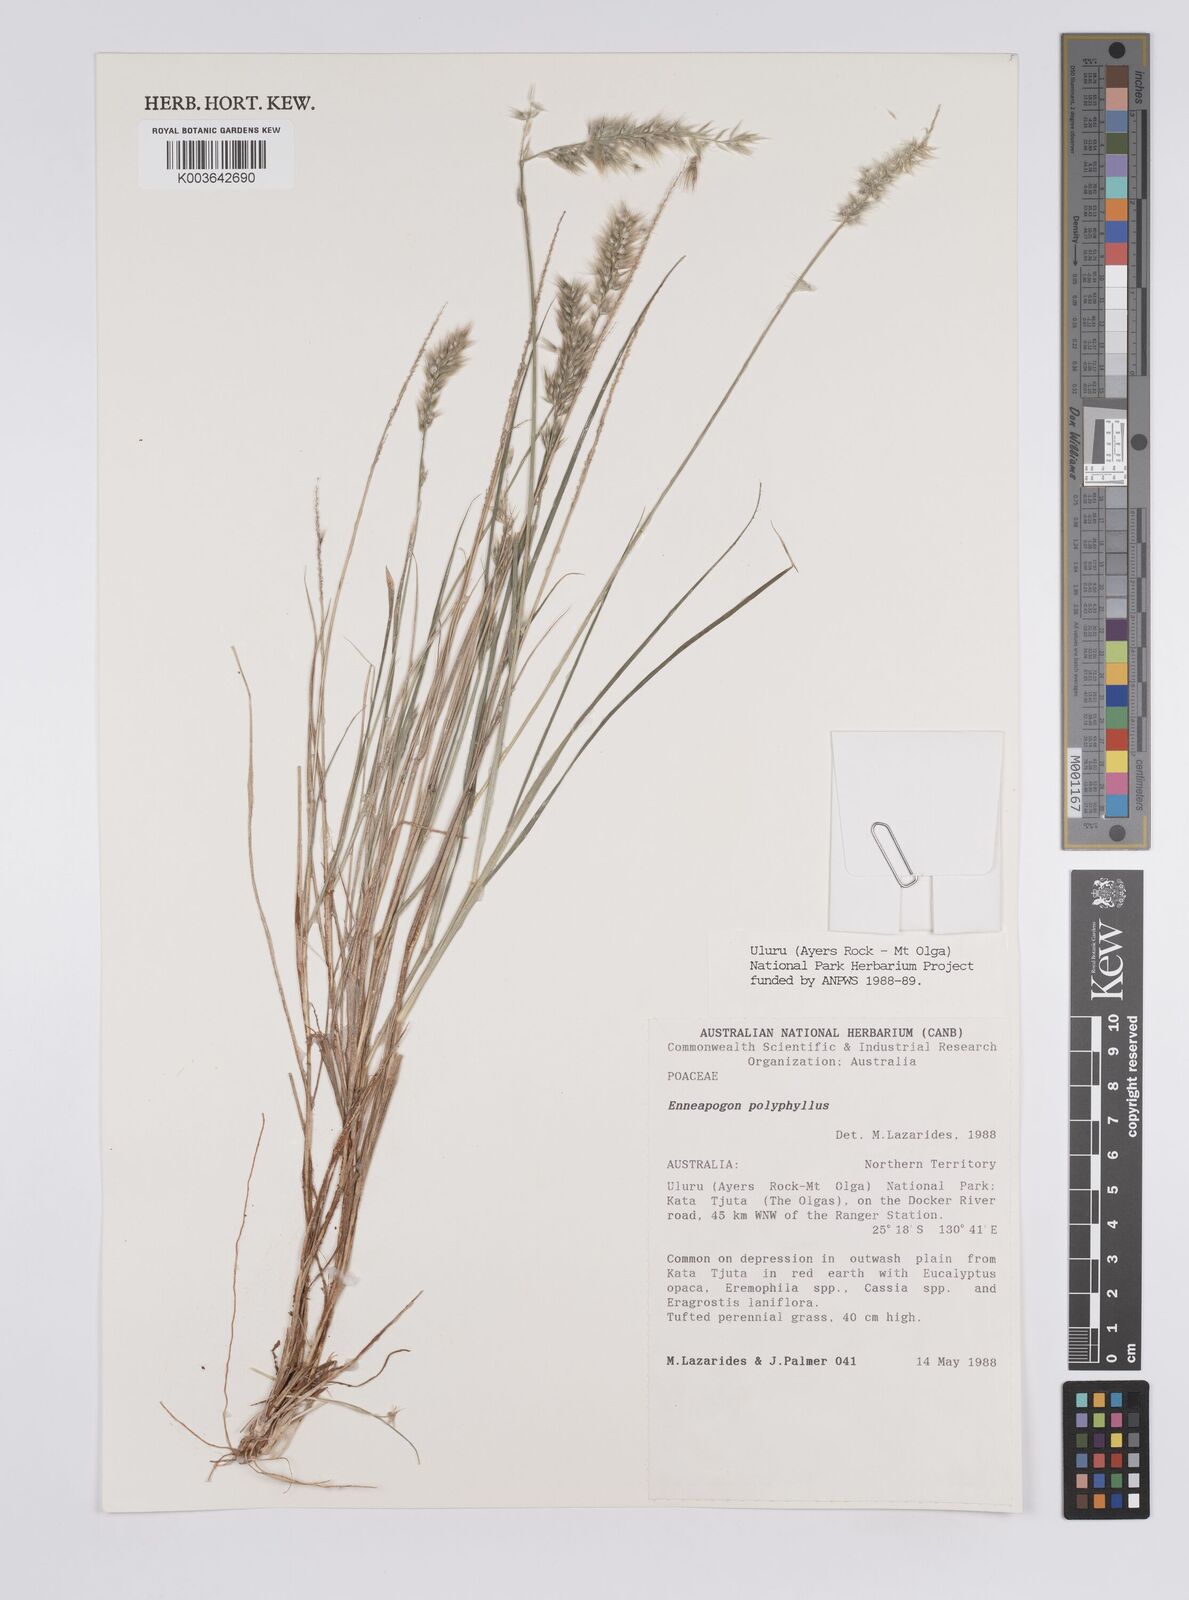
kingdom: Plantae
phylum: Tracheophyta
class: Liliopsida
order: Poales
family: Poaceae
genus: Enneapogon
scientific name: Enneapogon polyphyllus
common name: Leafy nineawn
